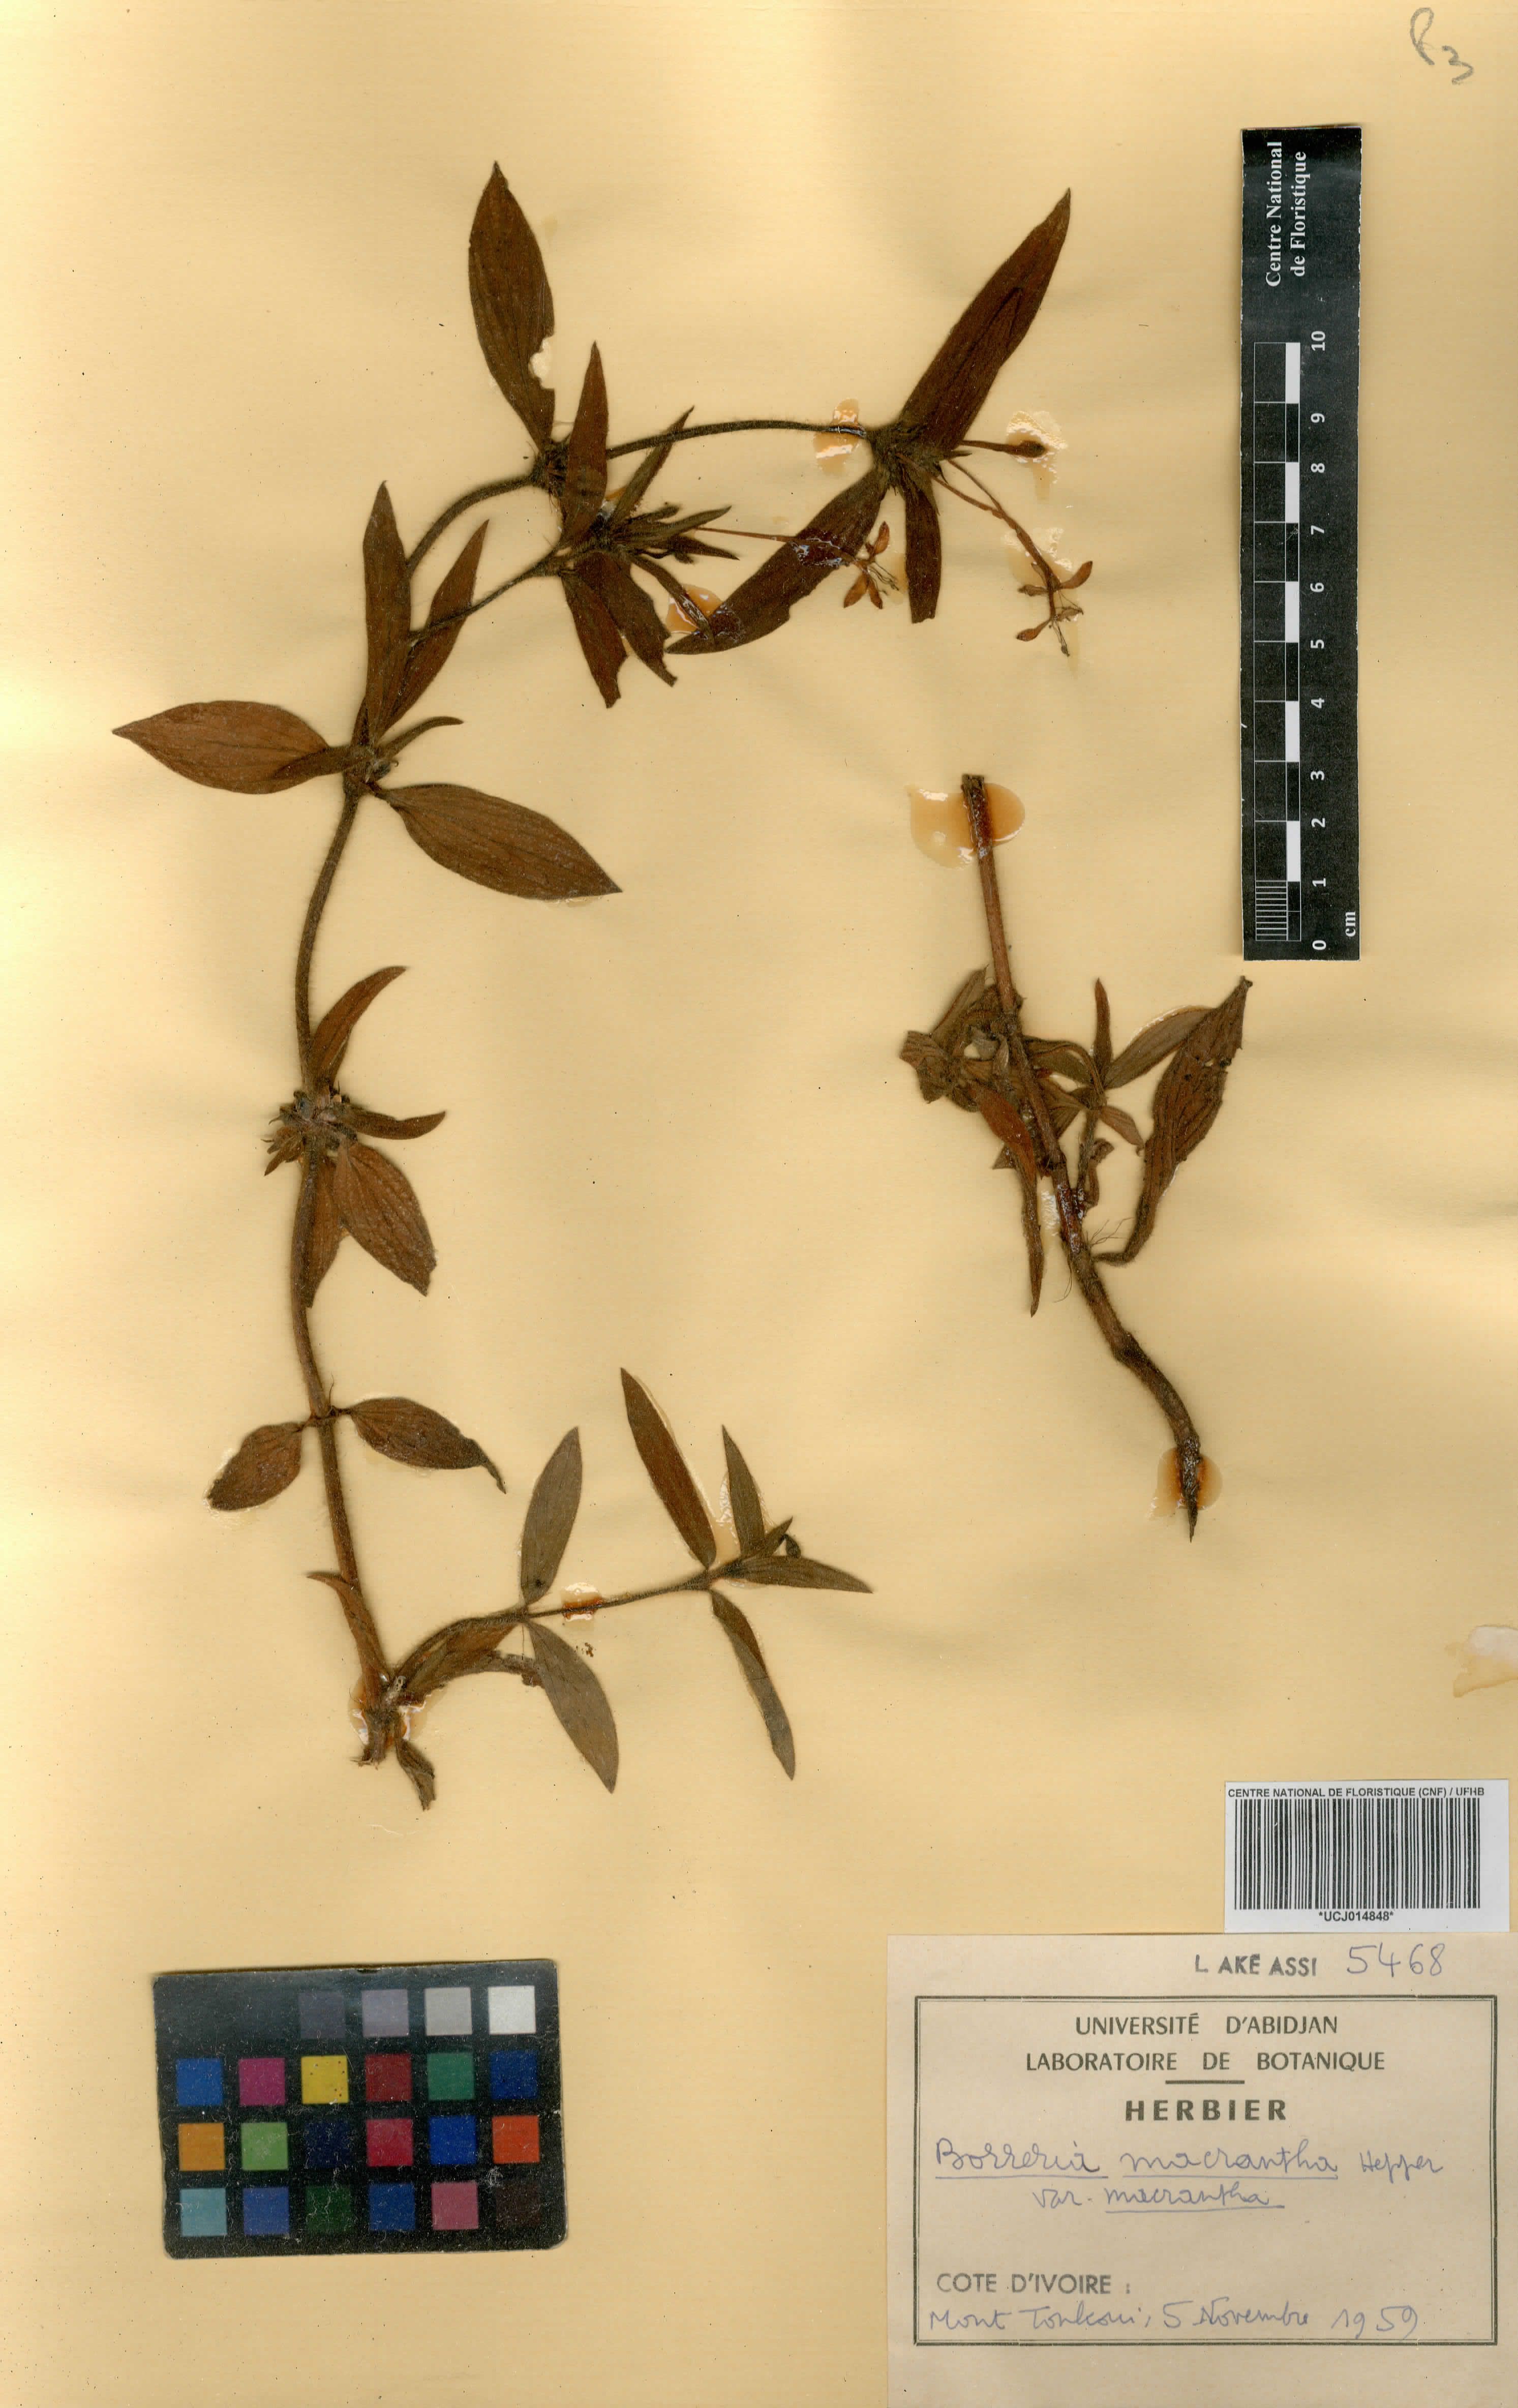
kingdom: Plantae
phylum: Tracheophyta
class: Magnoliopsida
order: Gentianales
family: Rubiaceae
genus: Spermacoce
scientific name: Spermacoce ivorensis
